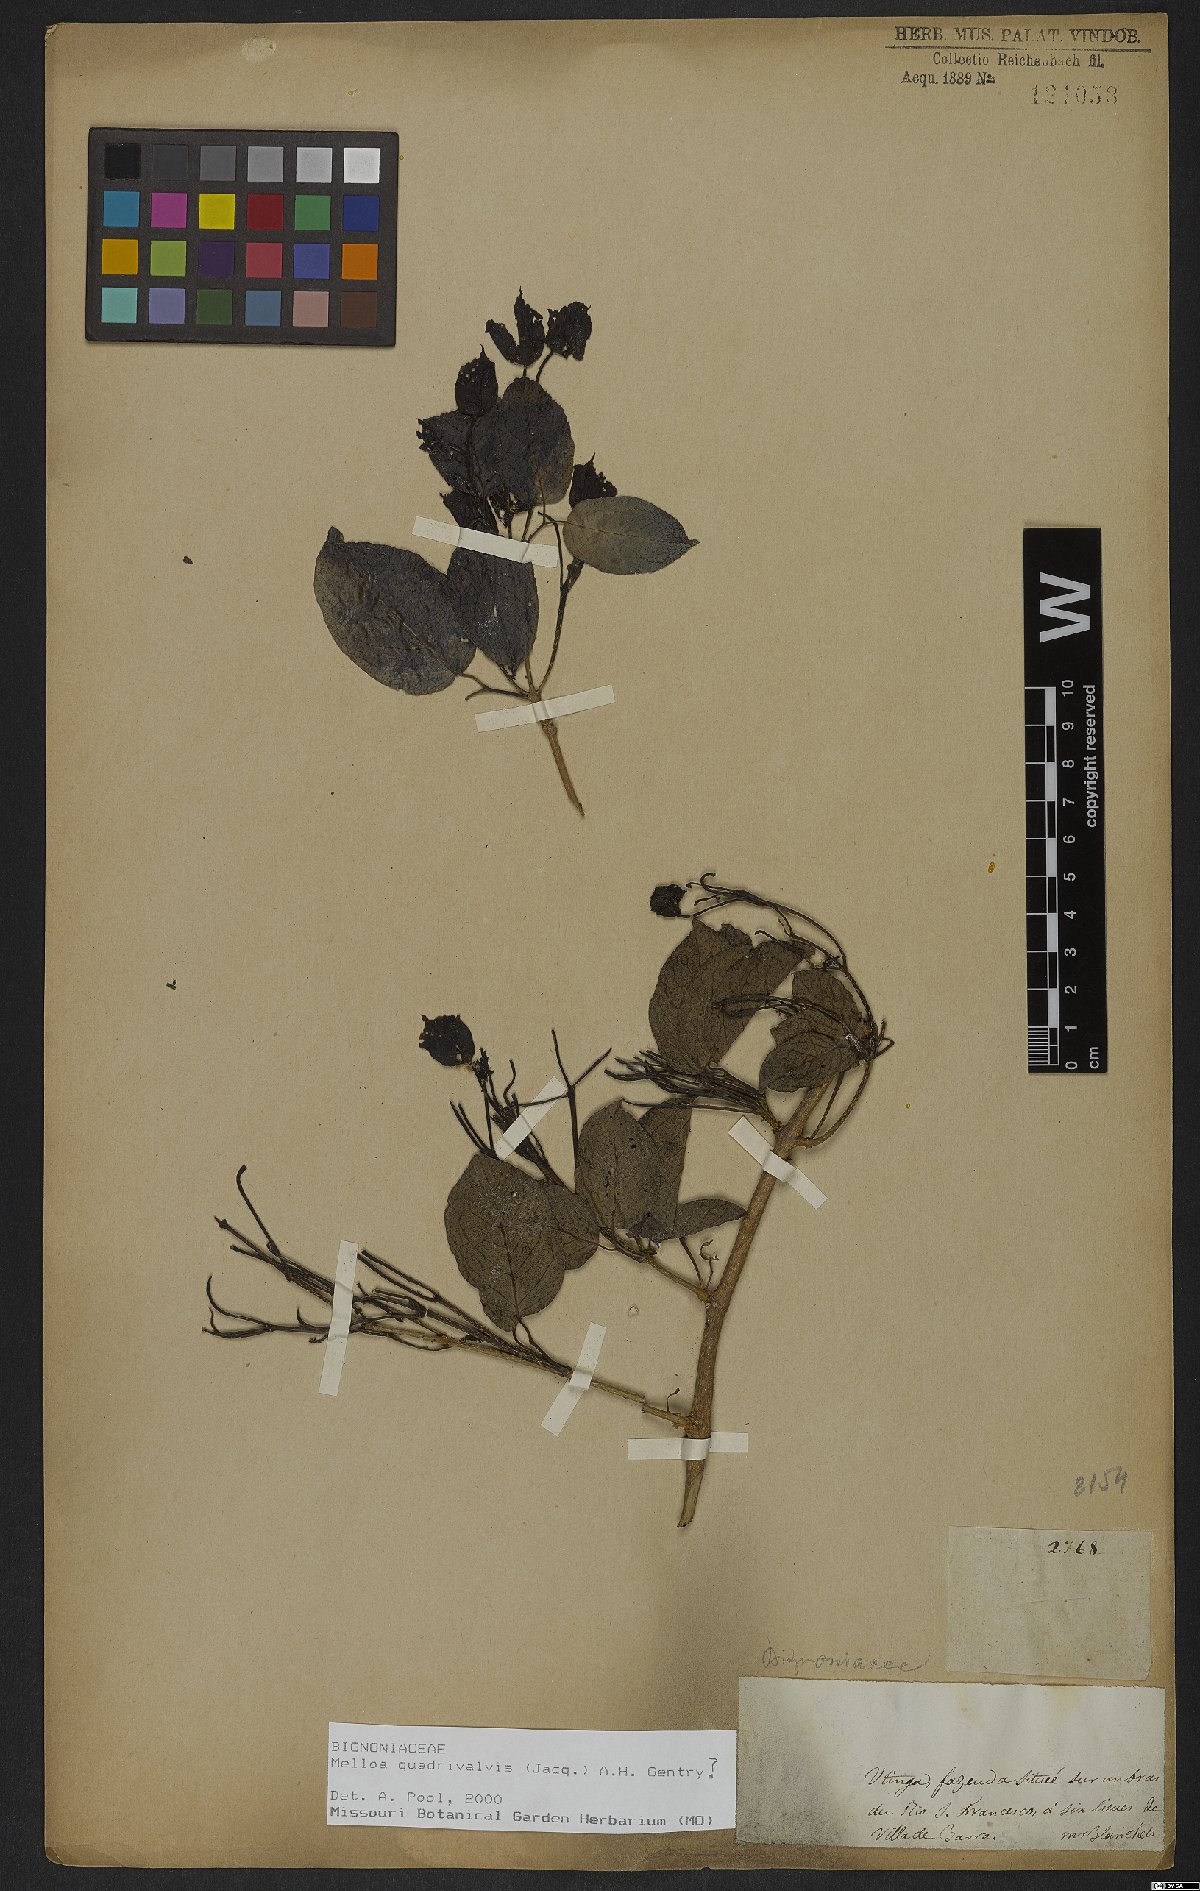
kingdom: Plantae
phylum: Tracheophyta
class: Magnoliopsida
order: Lamiales
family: Bignoniaceae
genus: Dolichandra
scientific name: Dolichandra quadrivalvis
